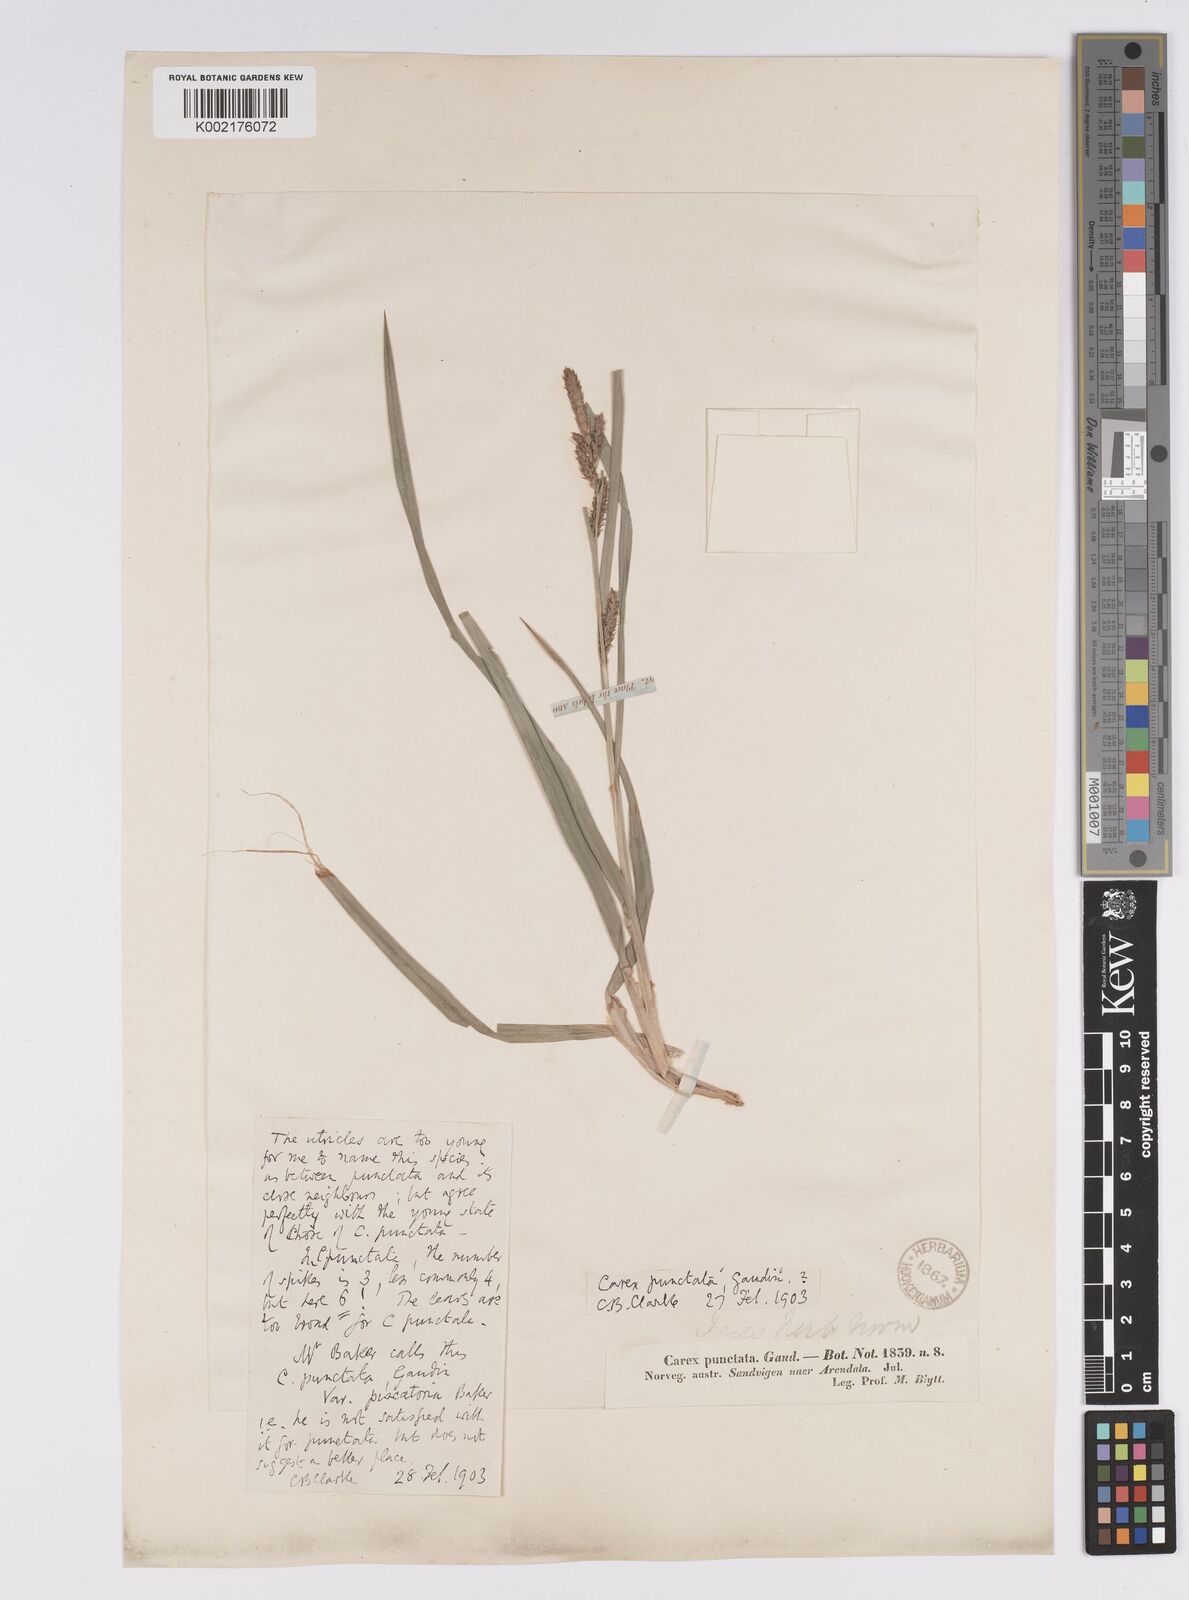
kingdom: Plantae
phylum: Tracheophyta
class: Liliopsida
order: Poales
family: Cyperaceae
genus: Carex
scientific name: Carex punctata
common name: Dotted sedge
